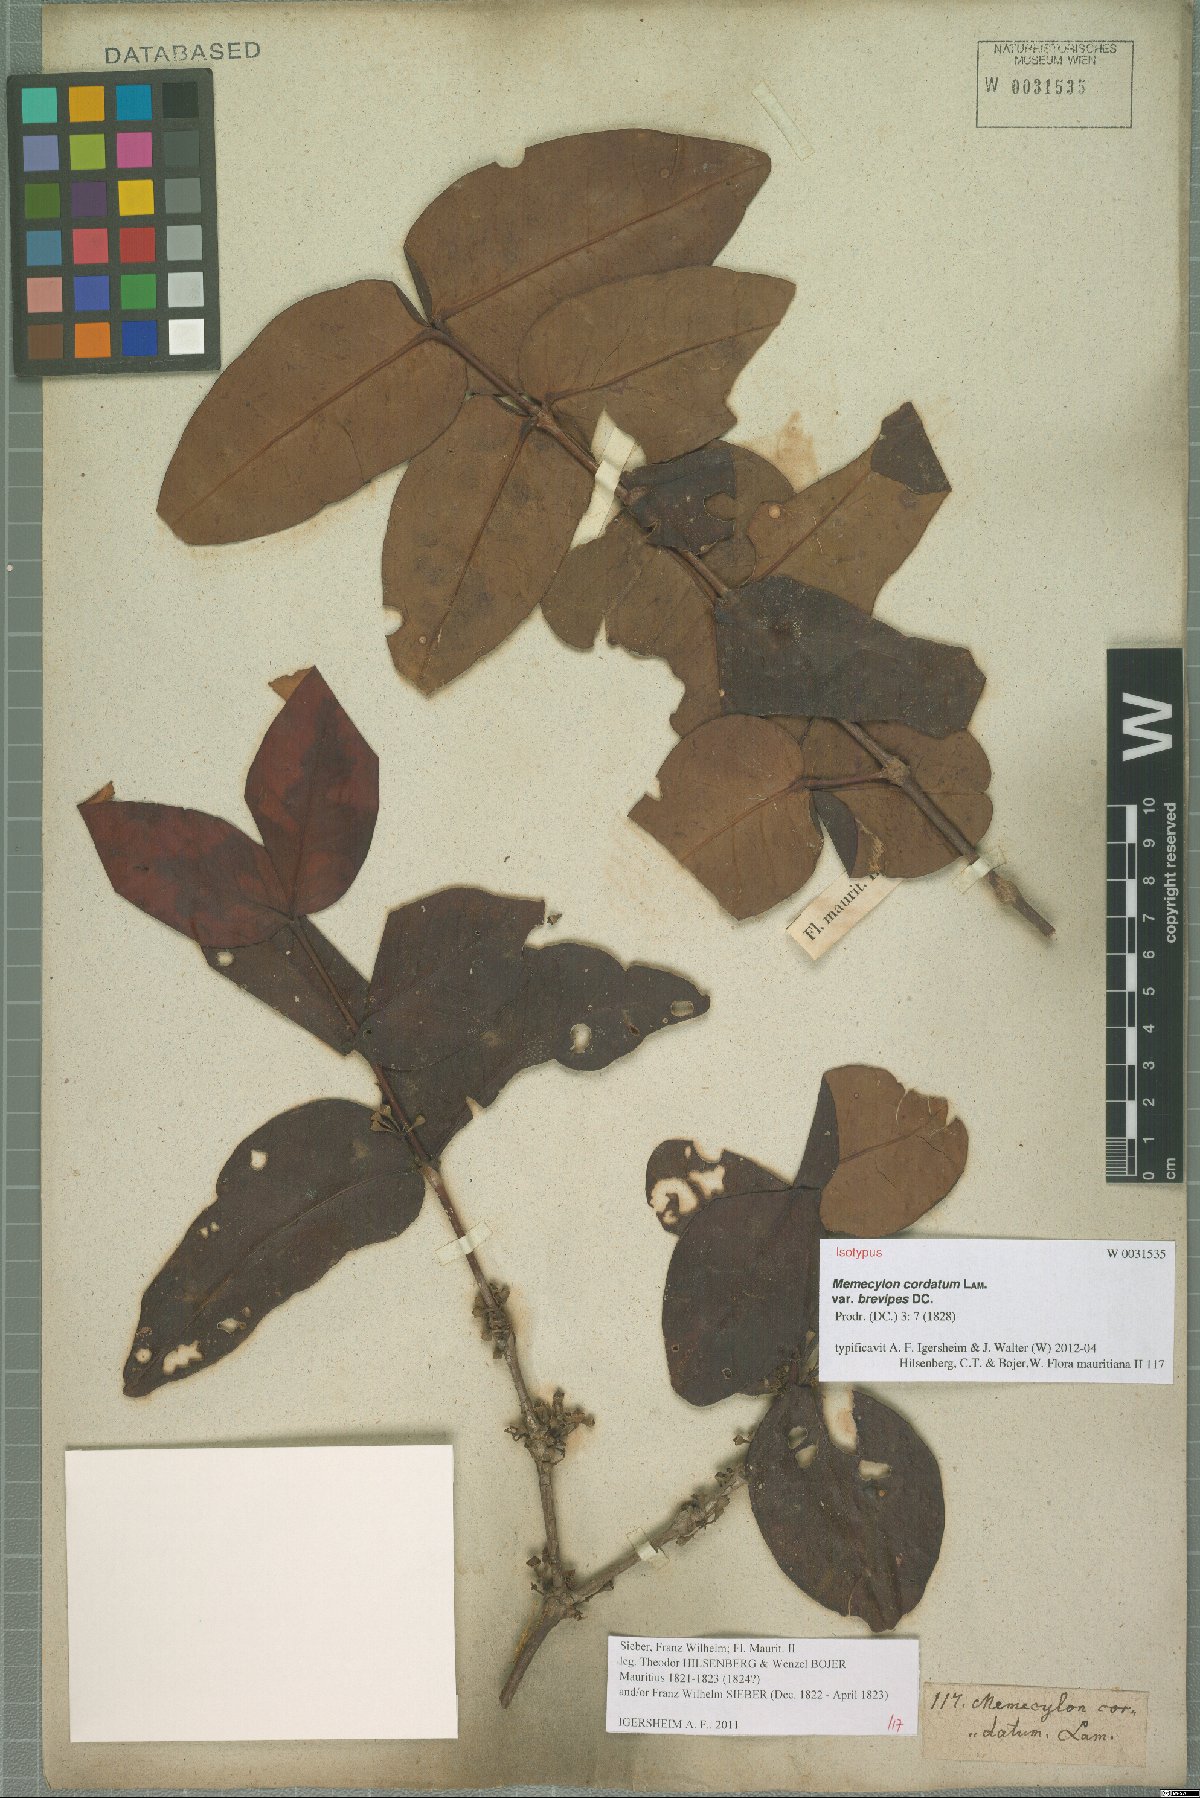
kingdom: Plantae
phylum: Tracheophyta
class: Magnoliopsida
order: Myrtales
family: Melastomataceae
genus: Memecylon
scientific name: Memecylon cordatum
